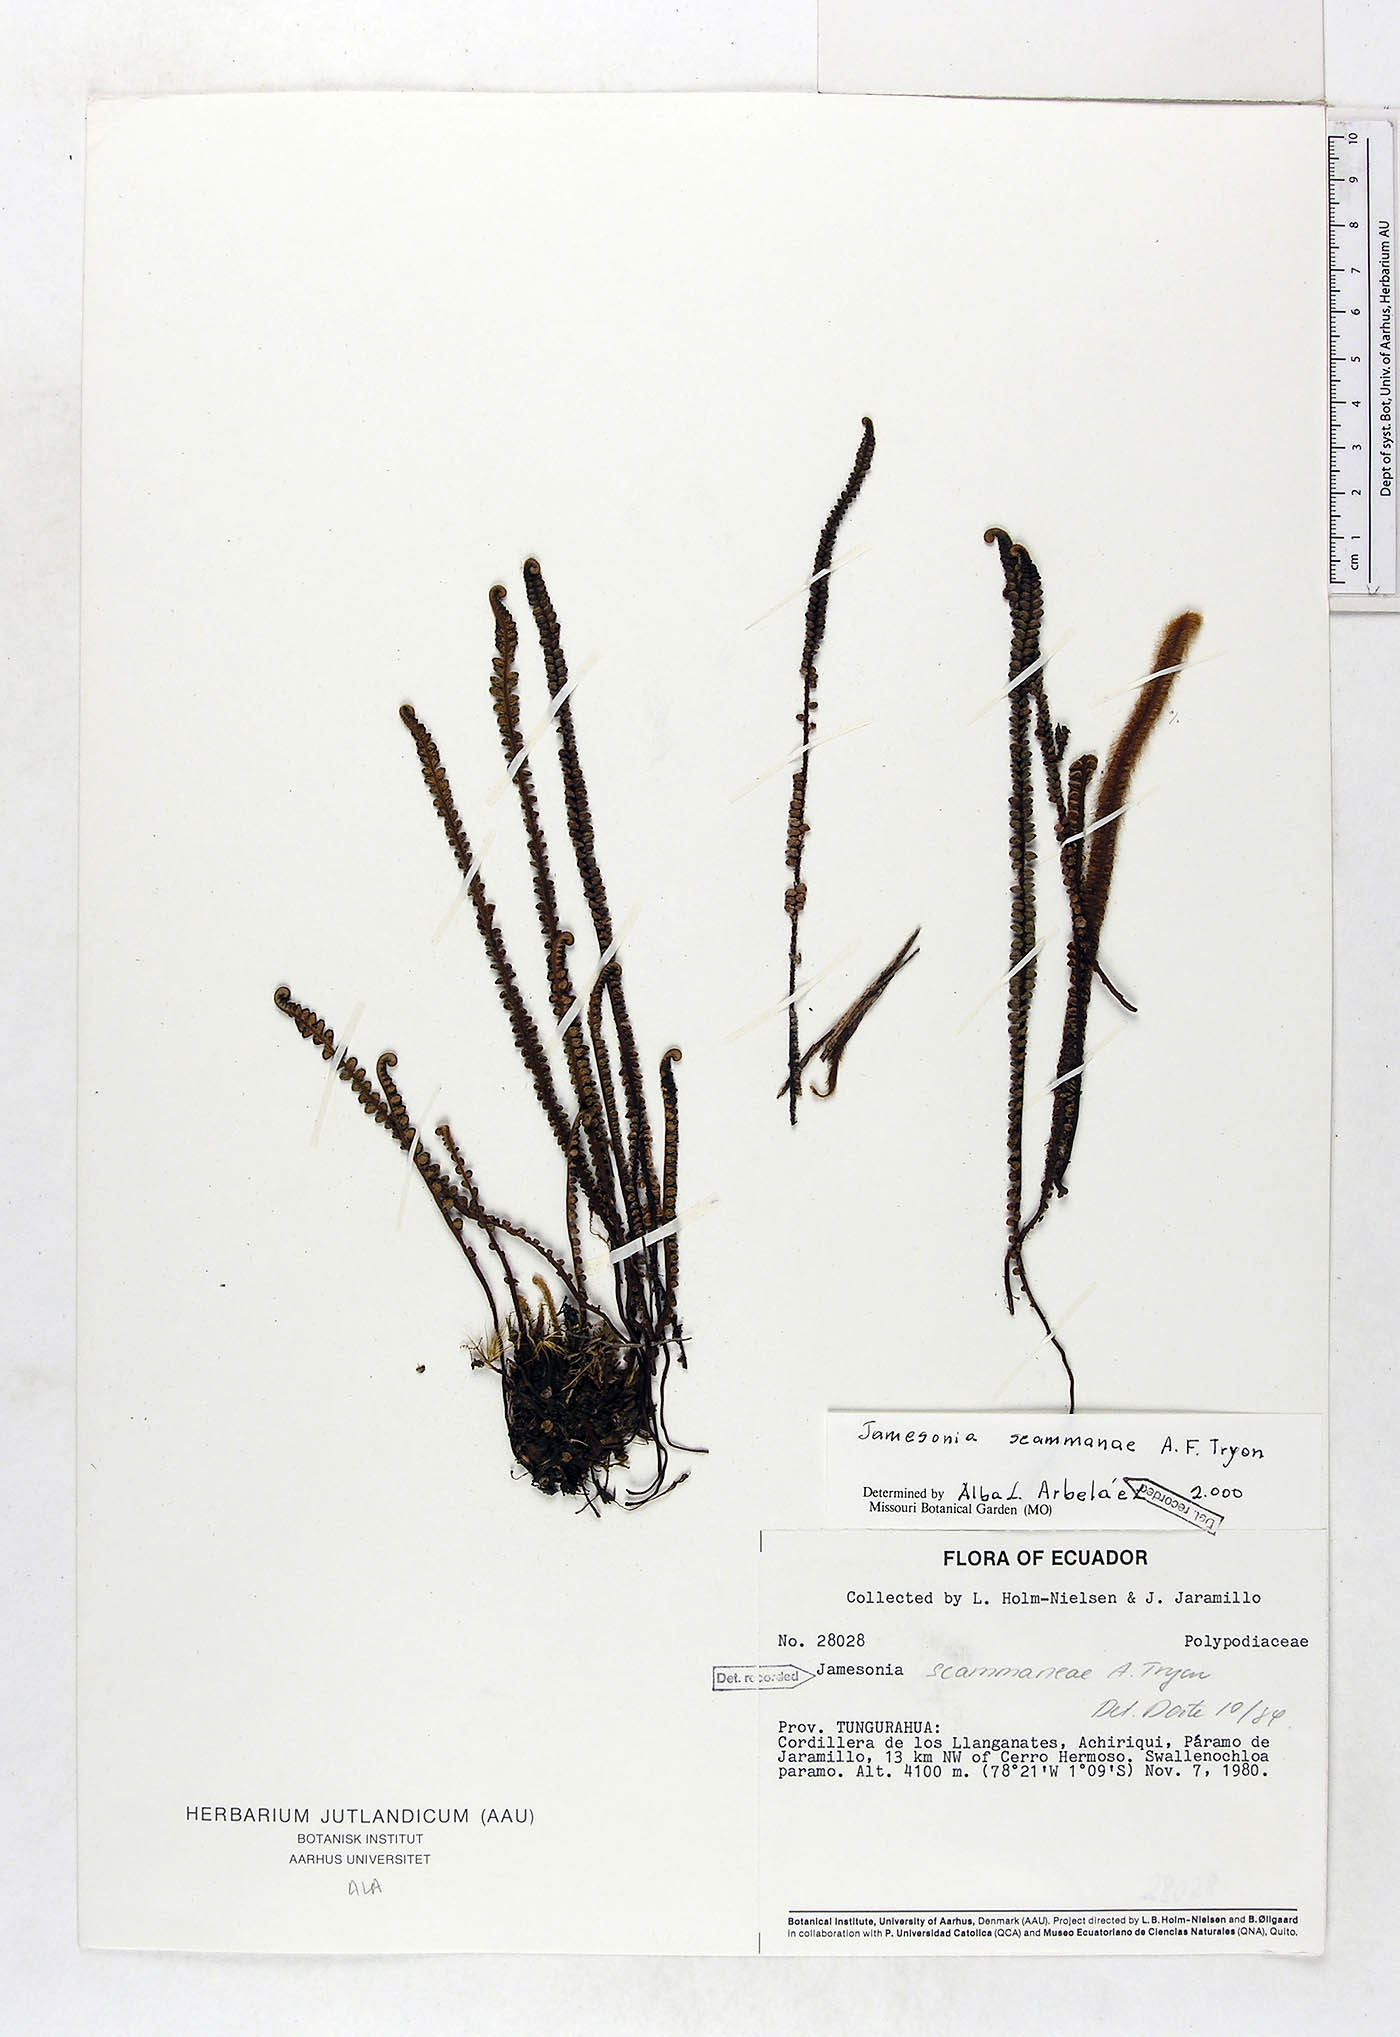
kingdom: Plantae
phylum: Tracheophyta
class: Polypodiopsida
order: Polypodiales
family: Pteridaceae
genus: Jamesonia
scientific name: Jamesonia scammanae
